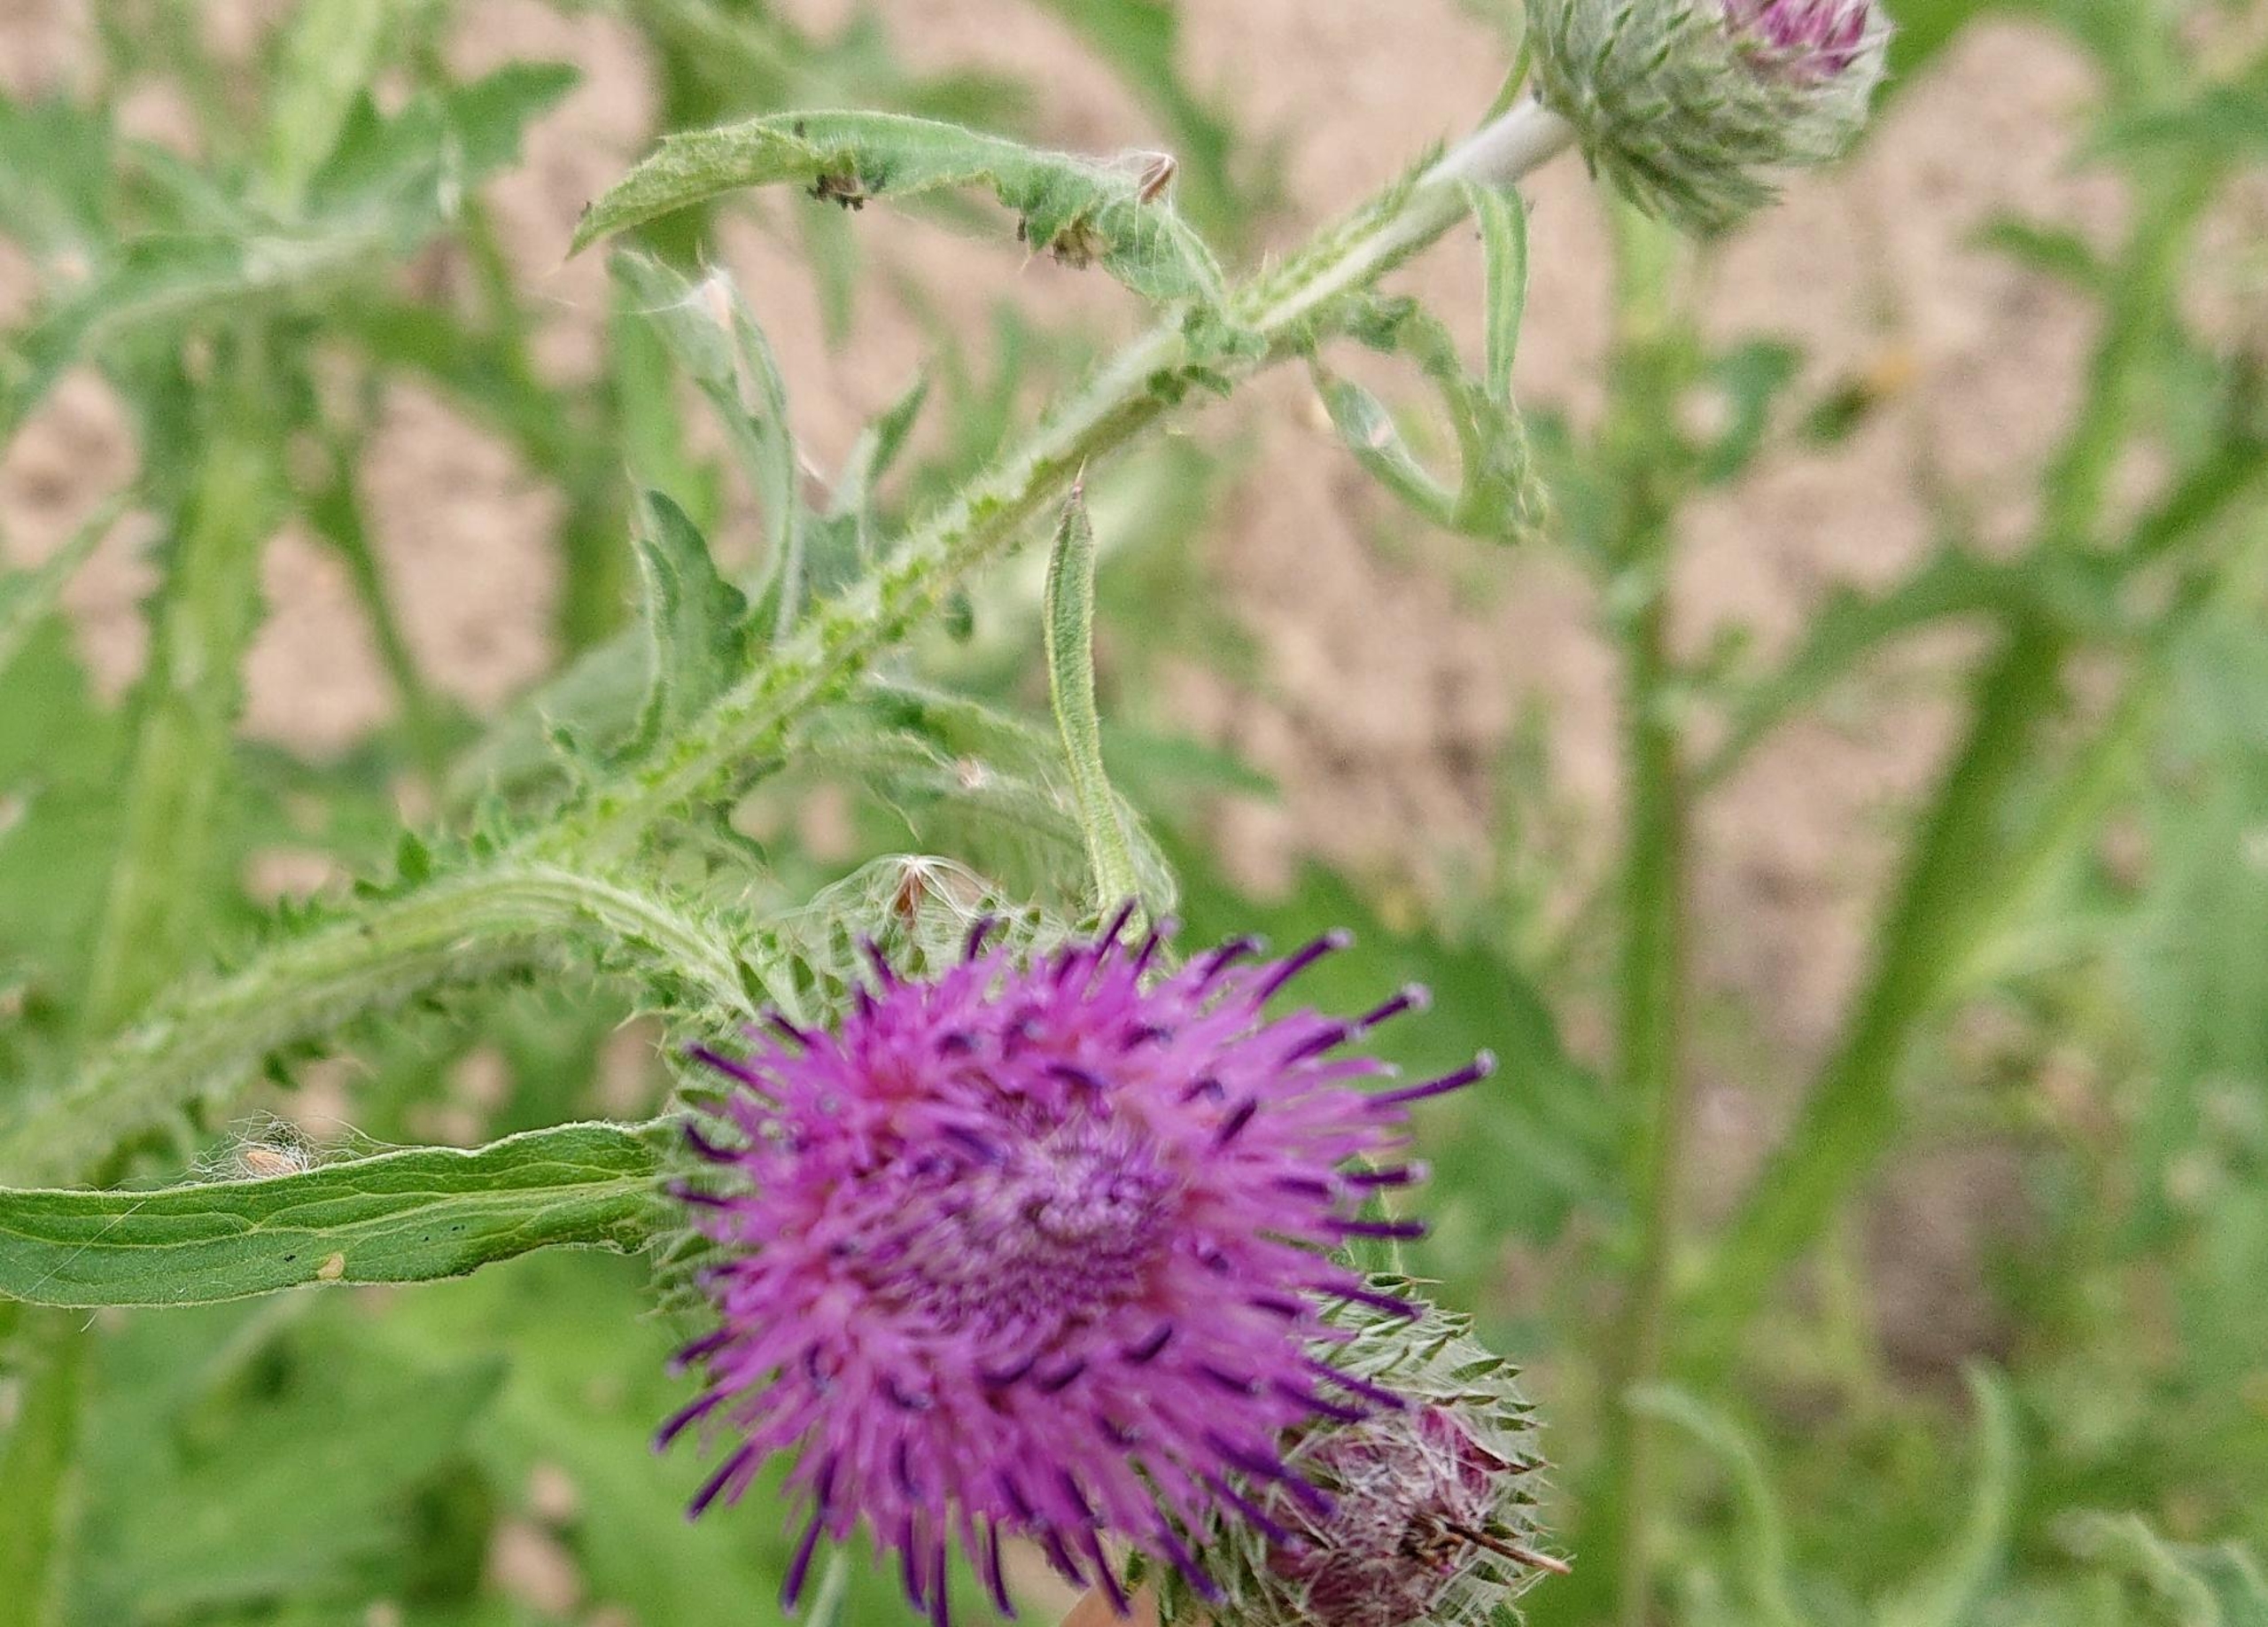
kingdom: Plantae
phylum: Tracheophyta
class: Magnoliopsida
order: Asterales
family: Asteraceae
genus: Cirsium
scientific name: Cirsium vulgare
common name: Horse-tidsel
